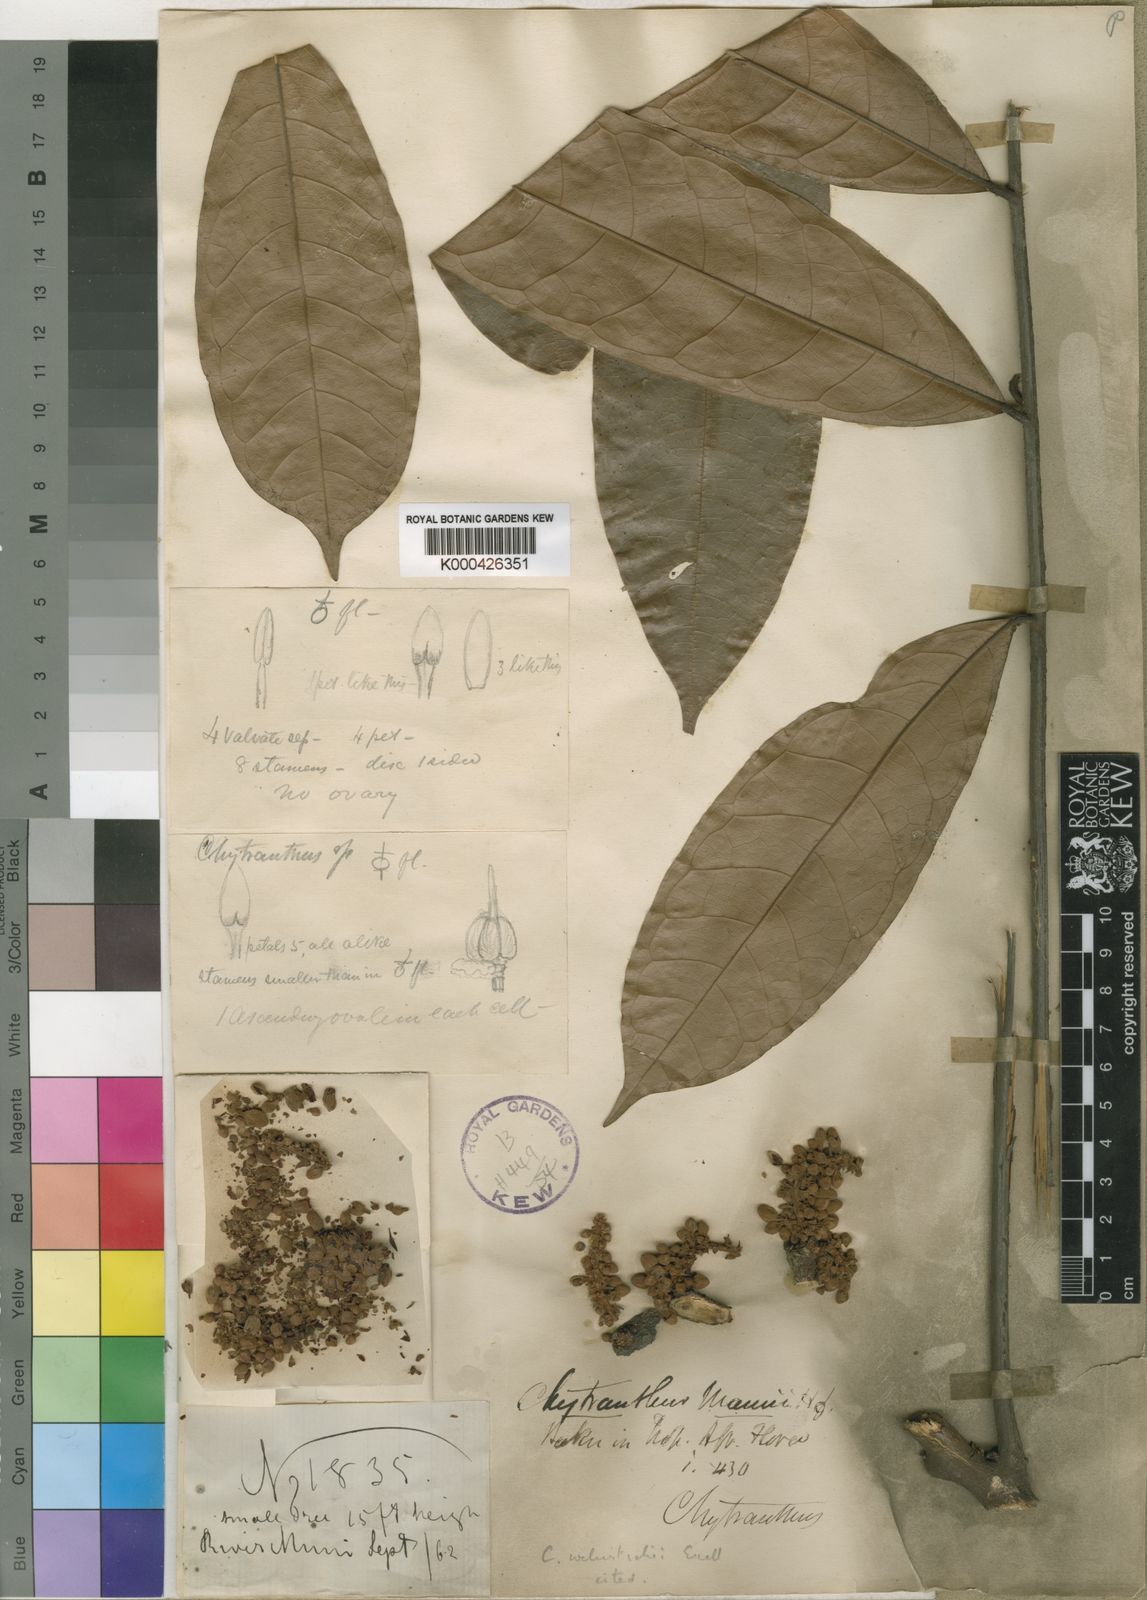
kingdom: Plantae
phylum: Tracheophyta
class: Magnoliopsida
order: Sapindales
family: Sapindaceae
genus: Chytranthus
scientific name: Chytranthus carneus
